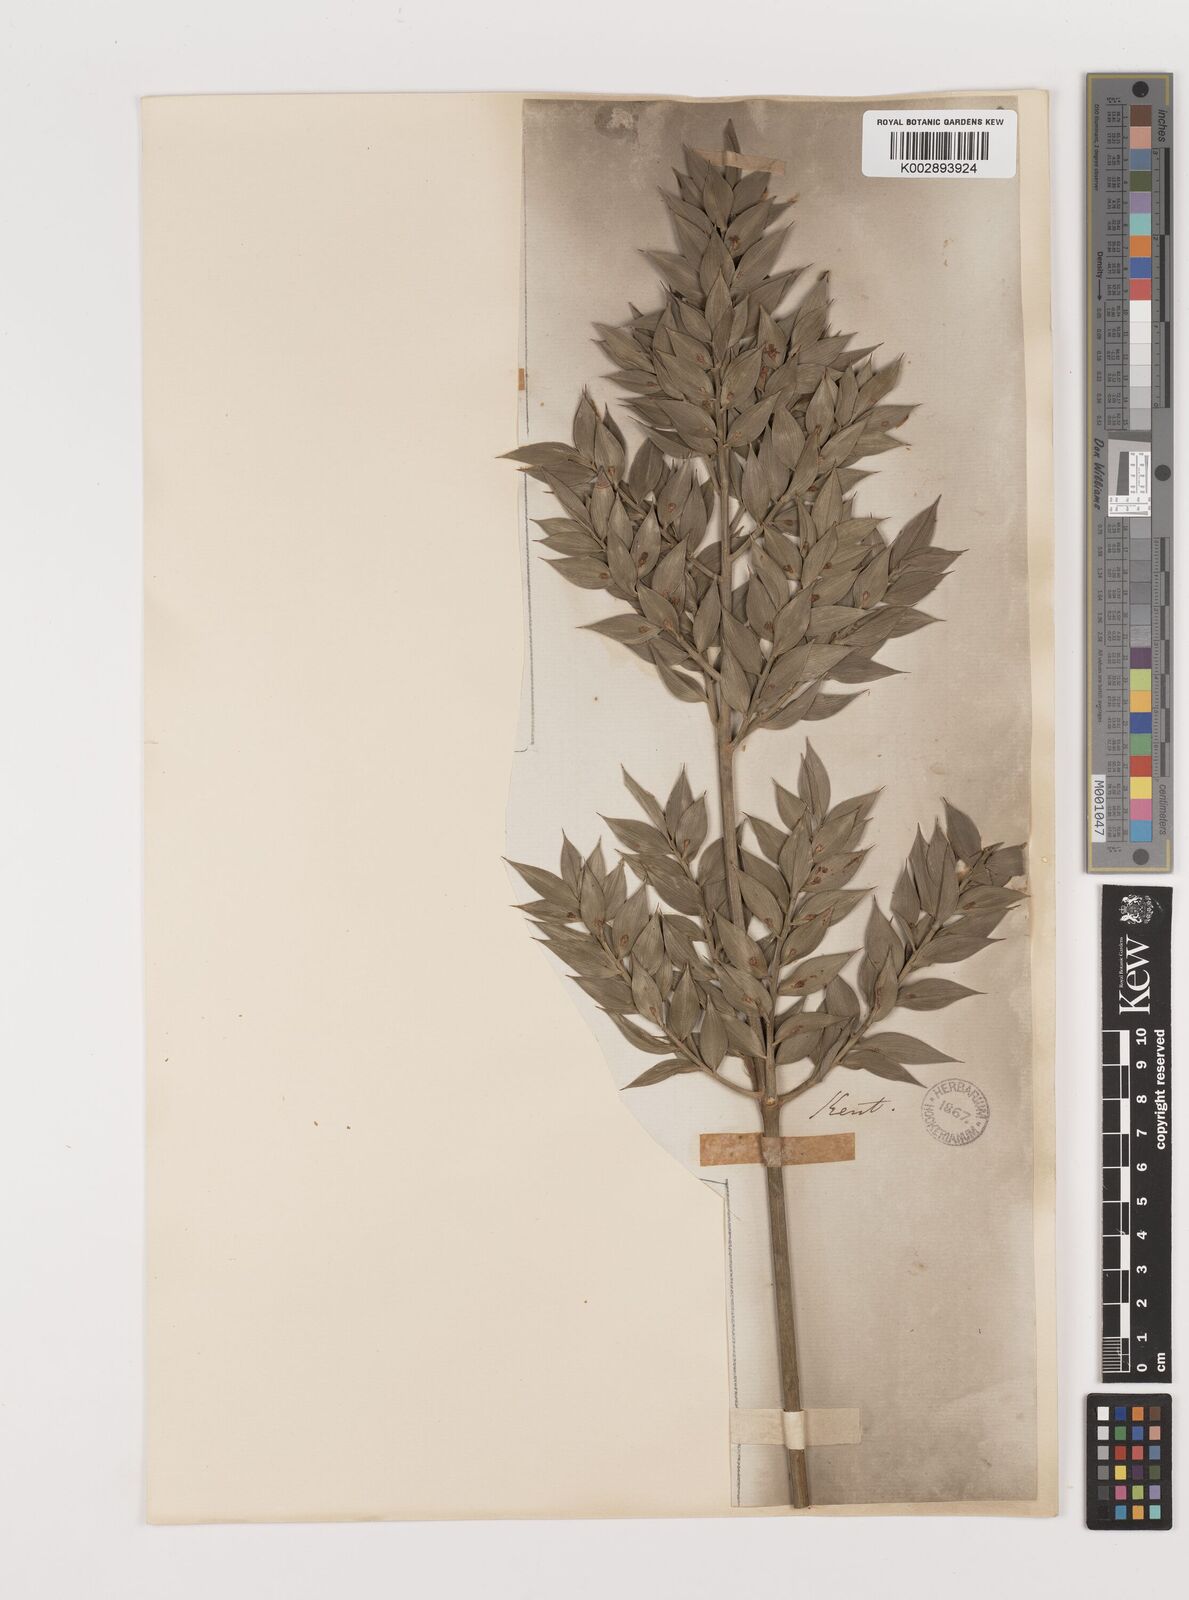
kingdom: Plantae
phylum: Tracheophyta
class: Liliopsida
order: Asparagales
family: Asparagaceae
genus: Ruscus
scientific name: Ruscus aculeatus
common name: Butcher's-broom
